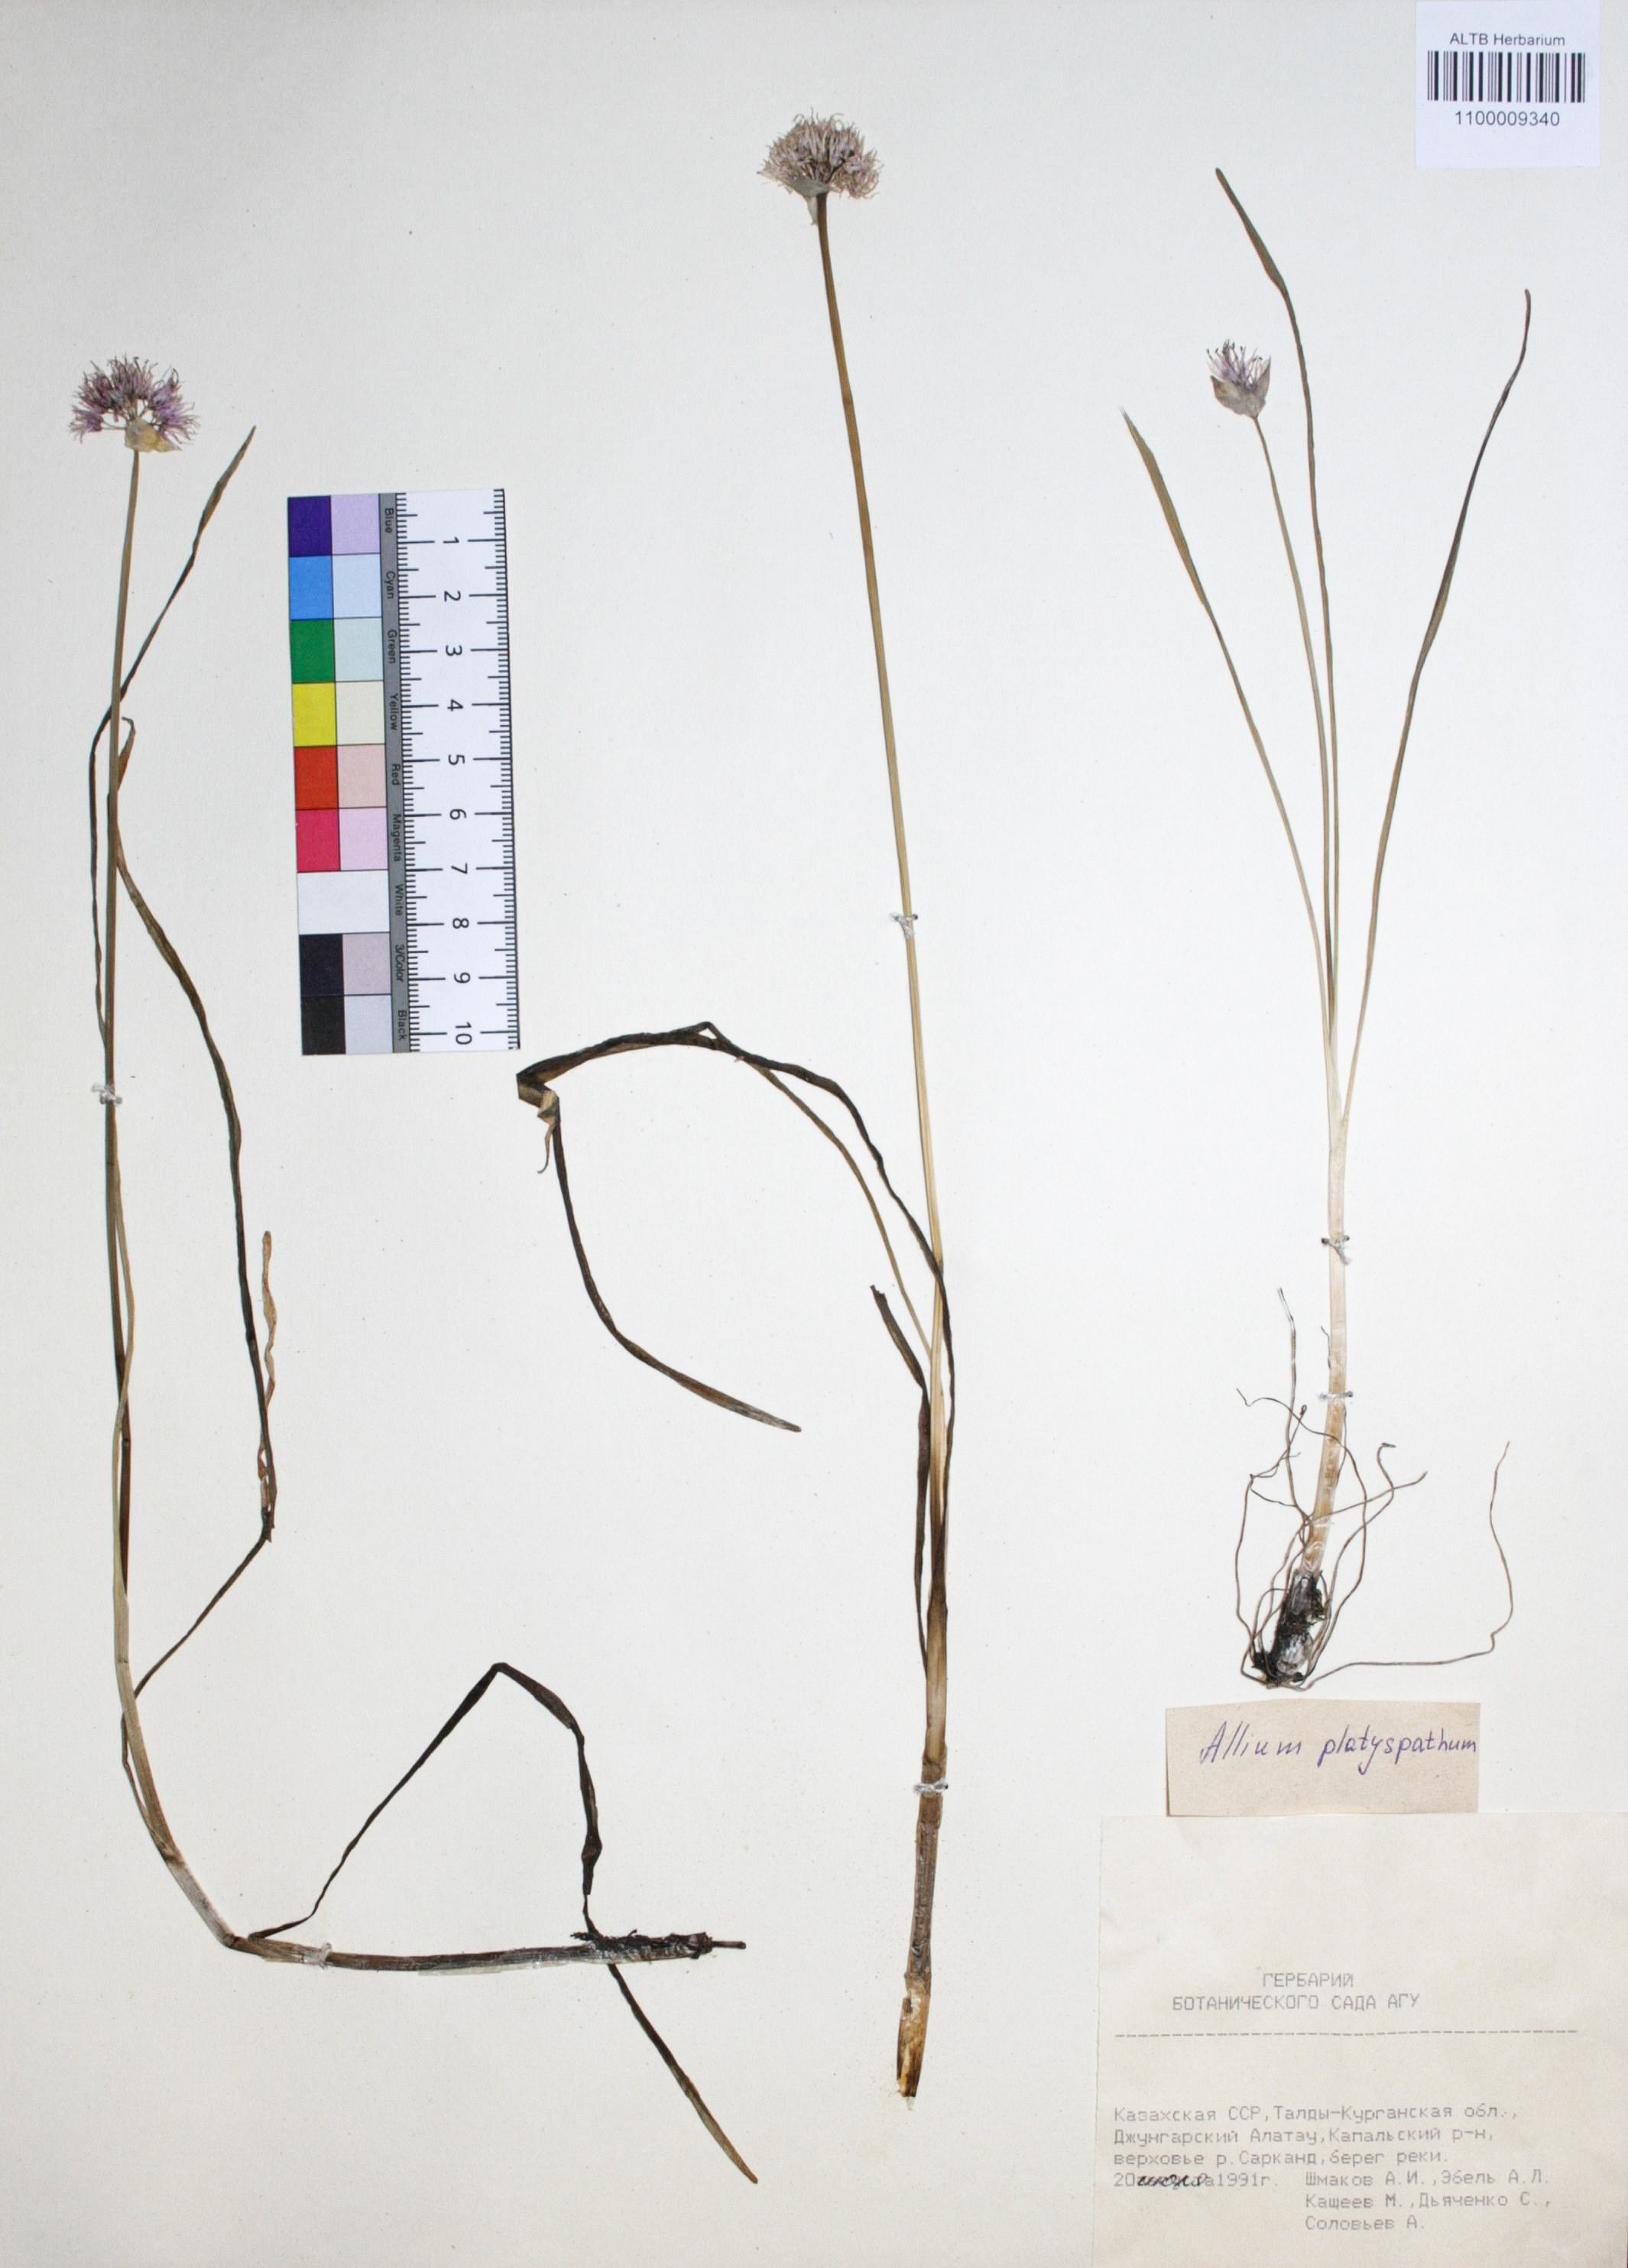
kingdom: Plantae
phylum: Tracheophyta
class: Liliopsida
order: Asparagales
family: Amaryllidaceae
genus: Allium
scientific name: Allium platyspathum
